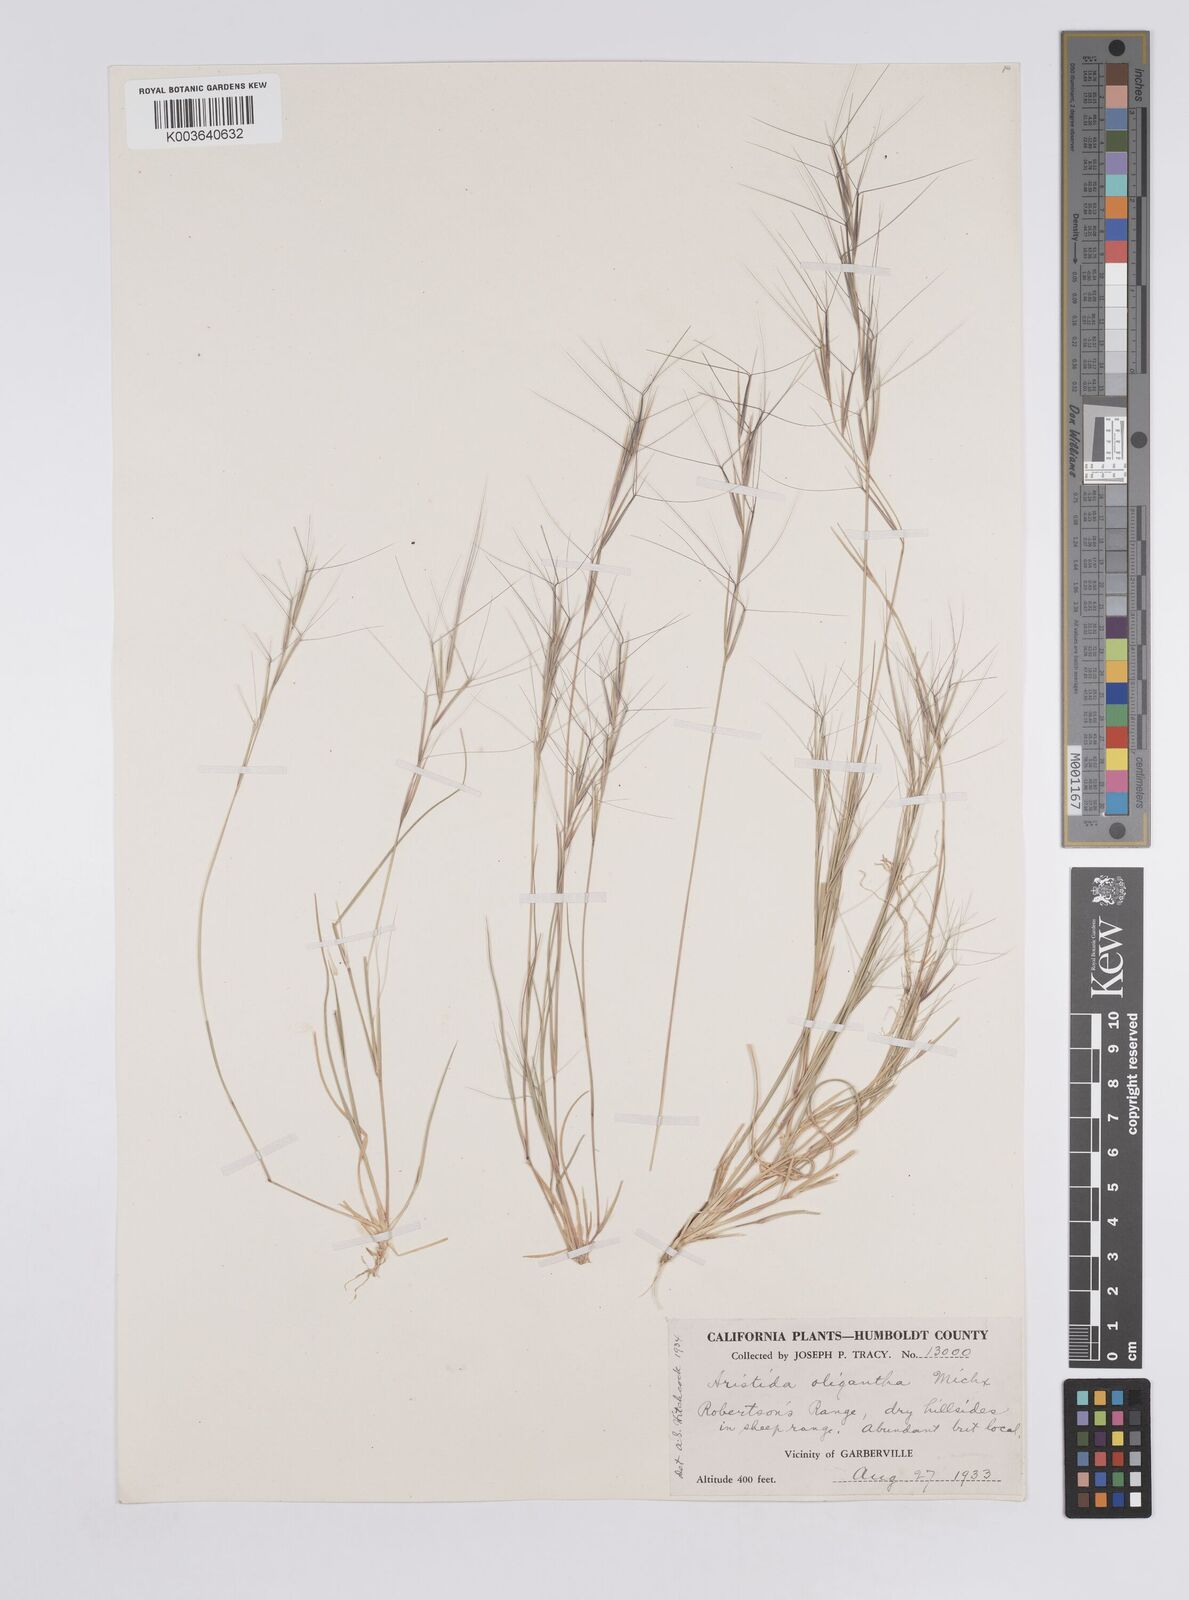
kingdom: Plantae
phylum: Tracheophyta
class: Liliopsida
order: Poales
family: Poaceae
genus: Aristida
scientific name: Aristida oligantha
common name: Few-flowered aristida
